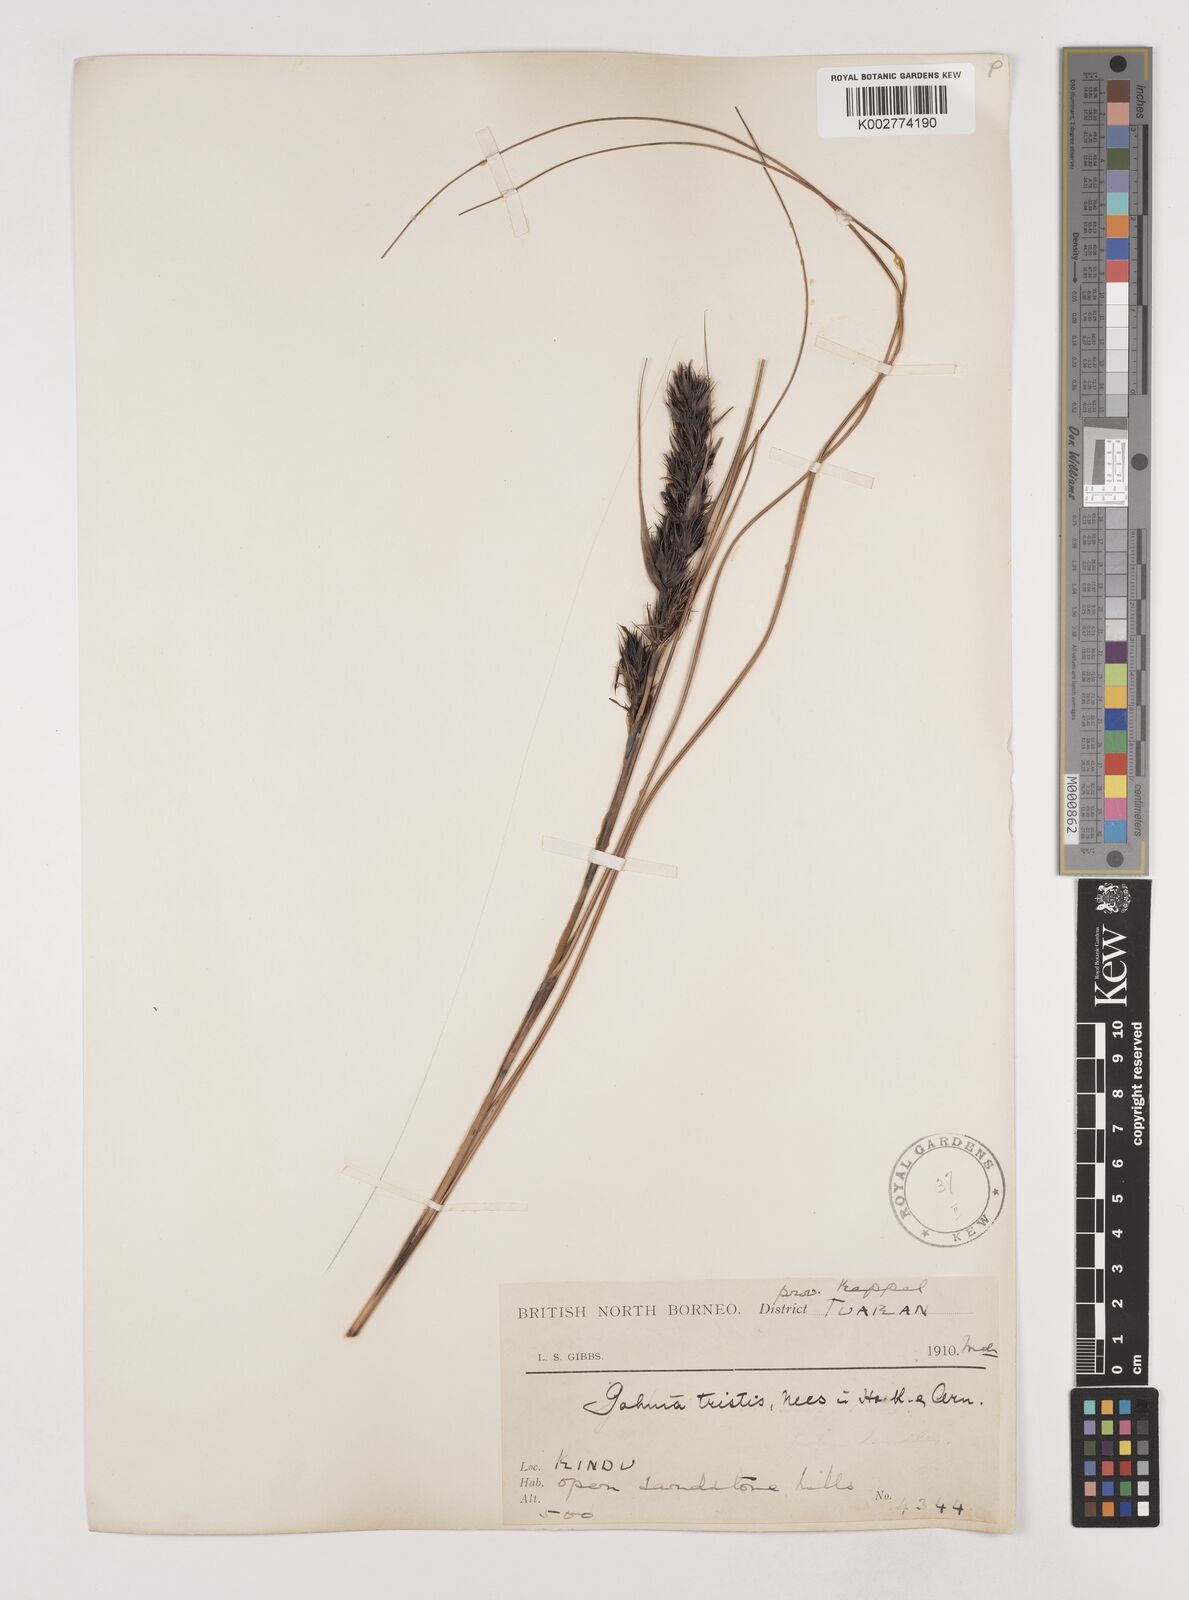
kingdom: Plantae
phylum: Tracheophyta
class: Liliopsida
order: Poales
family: Cyperaceae
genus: Gahnia
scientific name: Gahnia tristis
